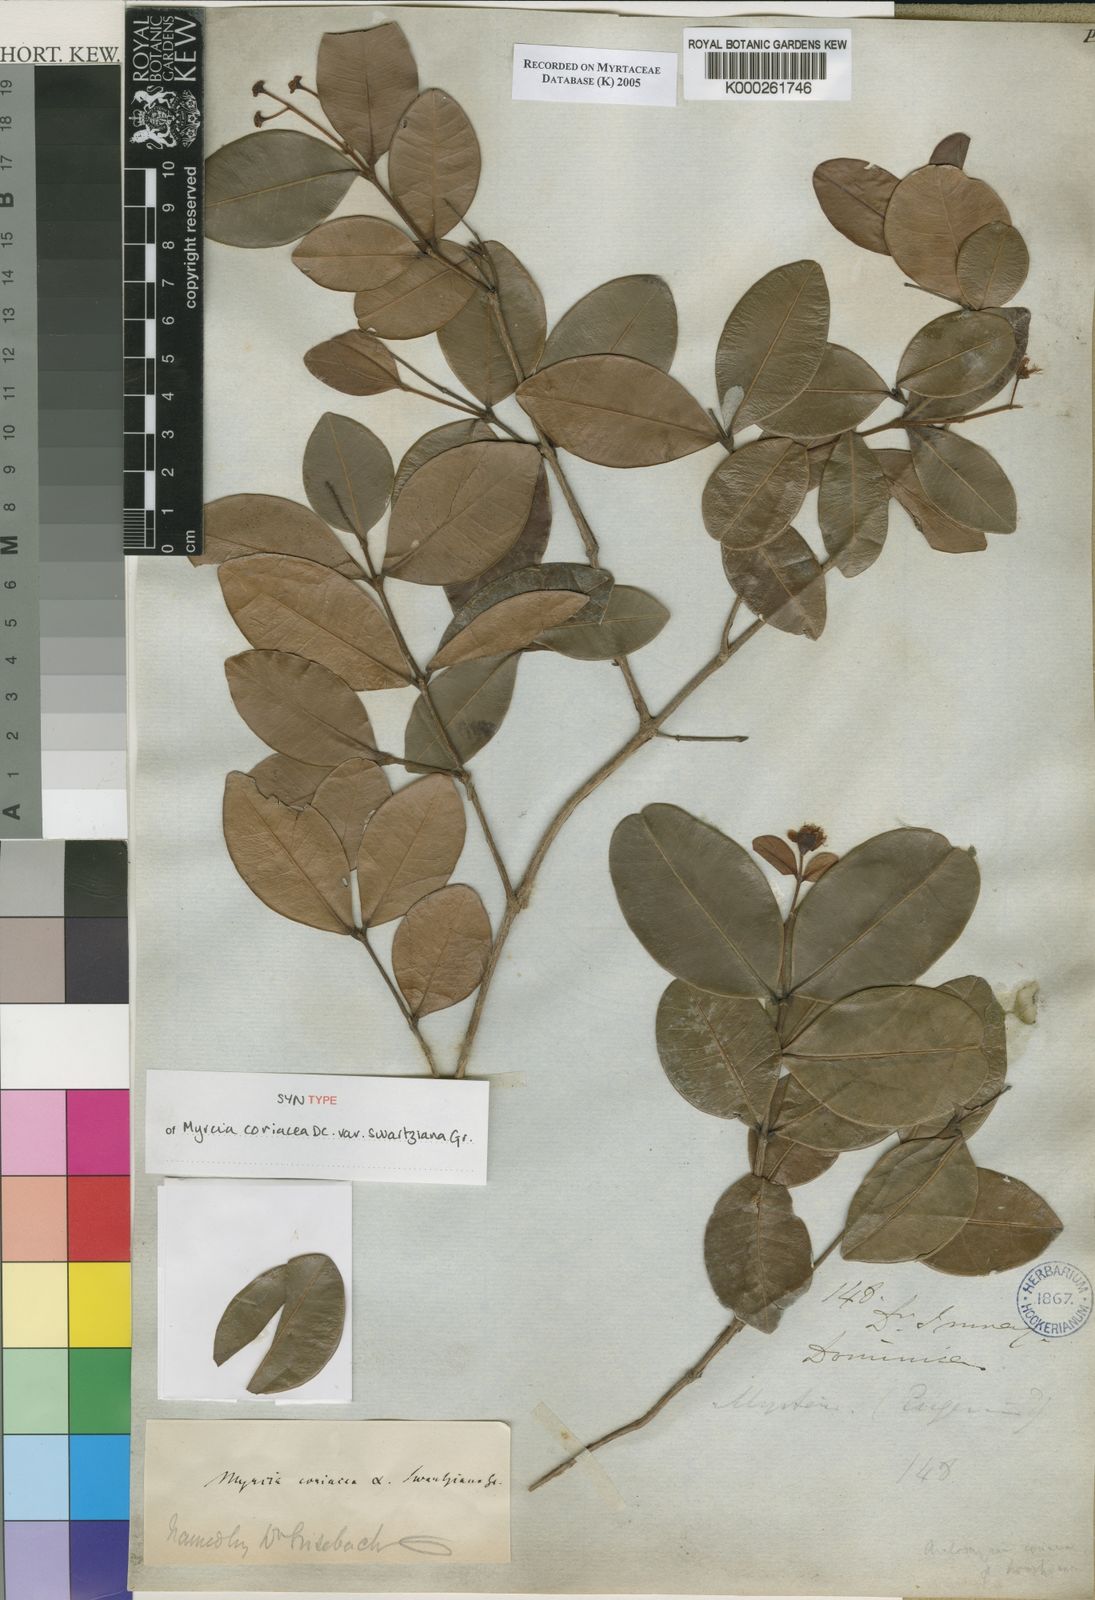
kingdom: Plantae
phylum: Tracheophyta
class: Magnoliopsida
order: Myrtales
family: Myrtaceae
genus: Myrcia
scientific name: Myrcia guianensis
